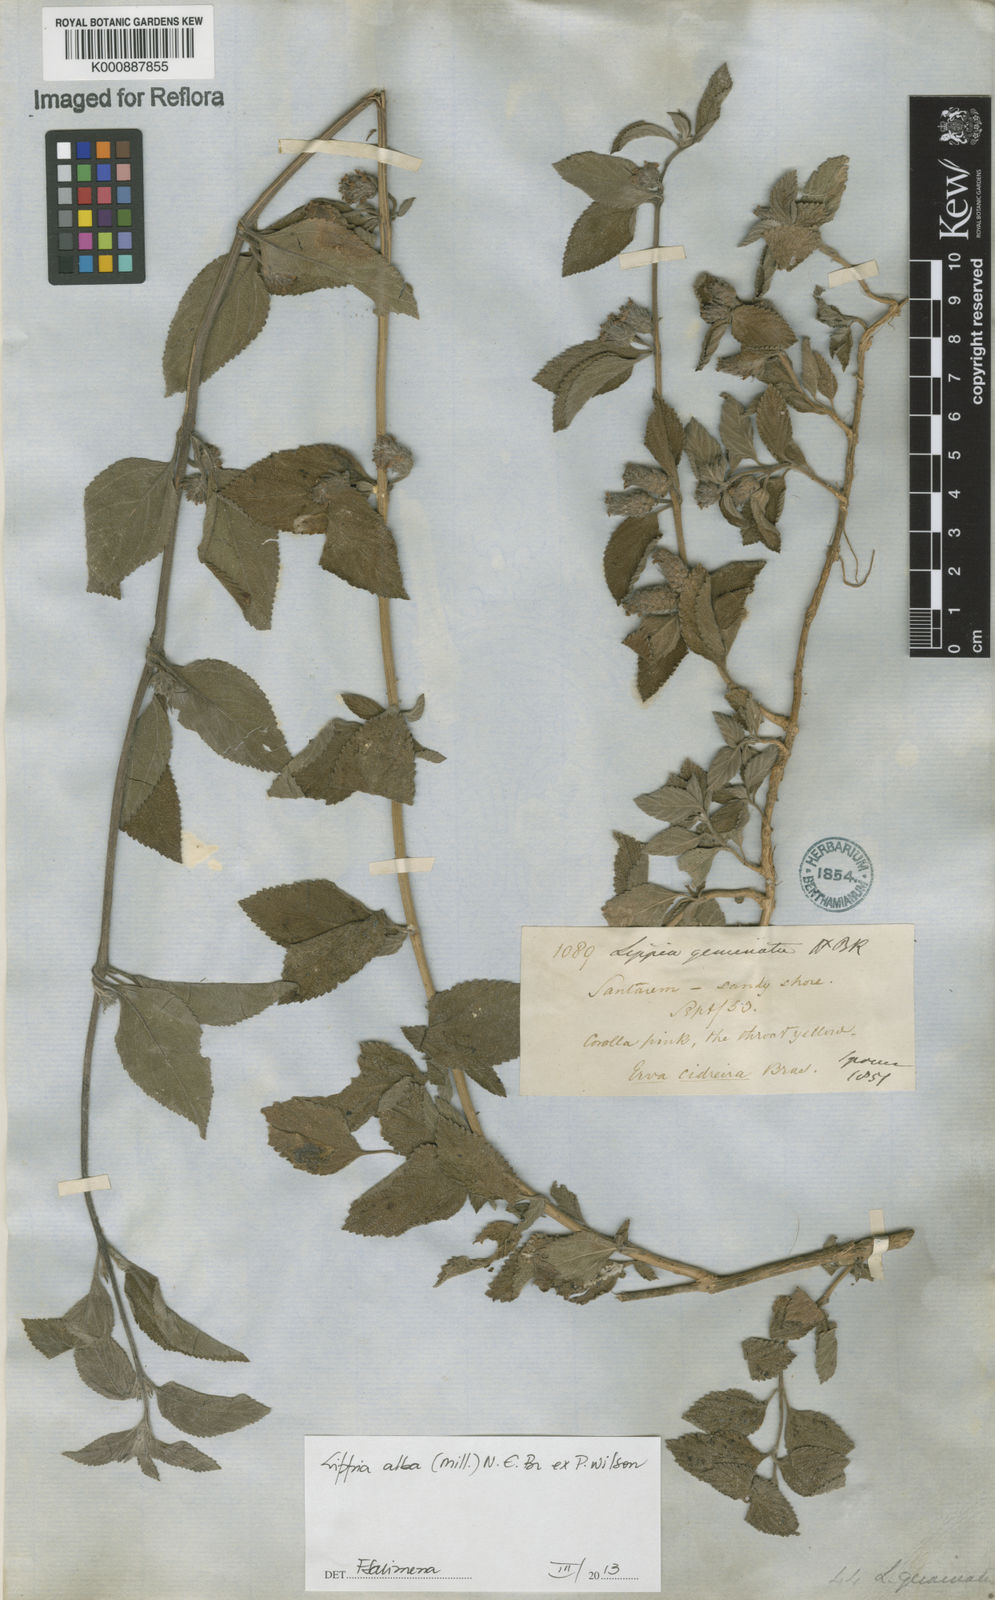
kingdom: Plantae
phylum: Tracheophyta
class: Magnoliopsida
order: Lamiales
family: Verbenaceae
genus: Lippia
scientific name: Lippia
